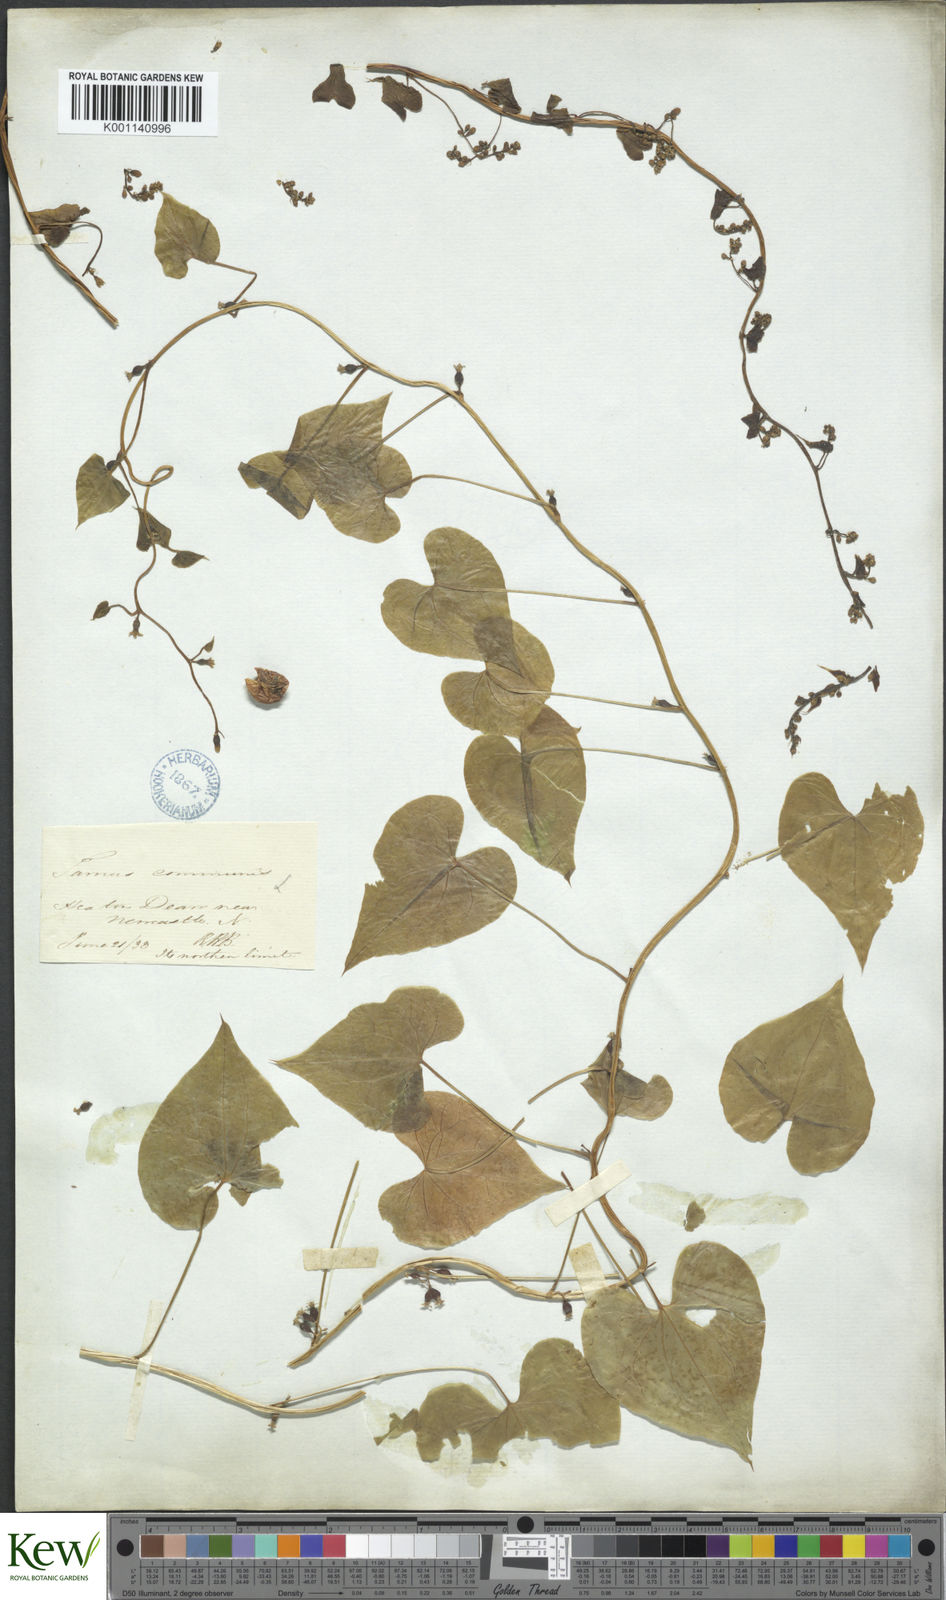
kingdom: Plantae
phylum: Tracheophyta
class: Liliopsida
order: Dioscoreales
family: Dioscoreaceae
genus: Dioscorea
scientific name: Dioscorea communis
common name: Black-bindweed
